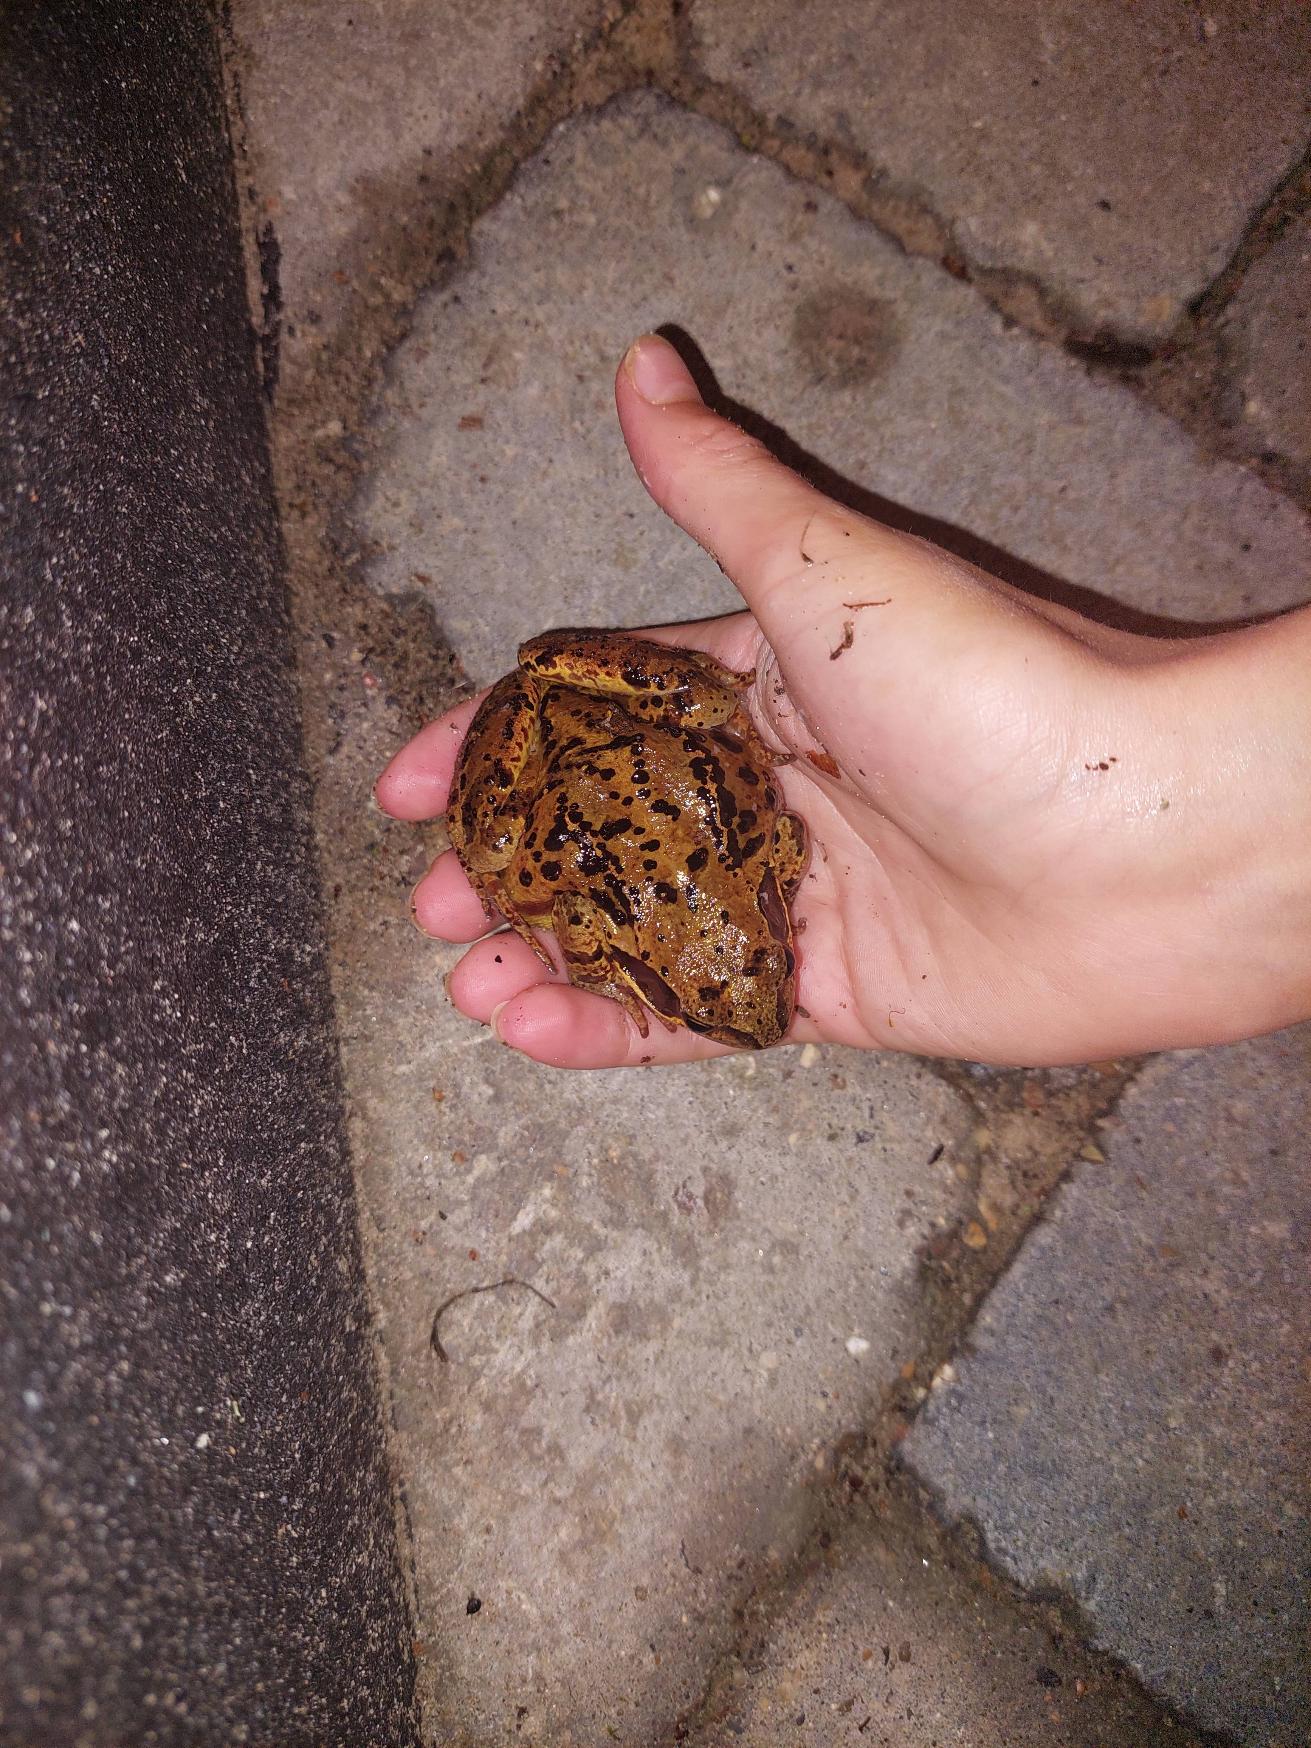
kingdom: Animalia
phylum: Chordata
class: Amphibia
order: Anura
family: Ranidae
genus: Rana
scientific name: Rana temporaria
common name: Butsnudet frø
